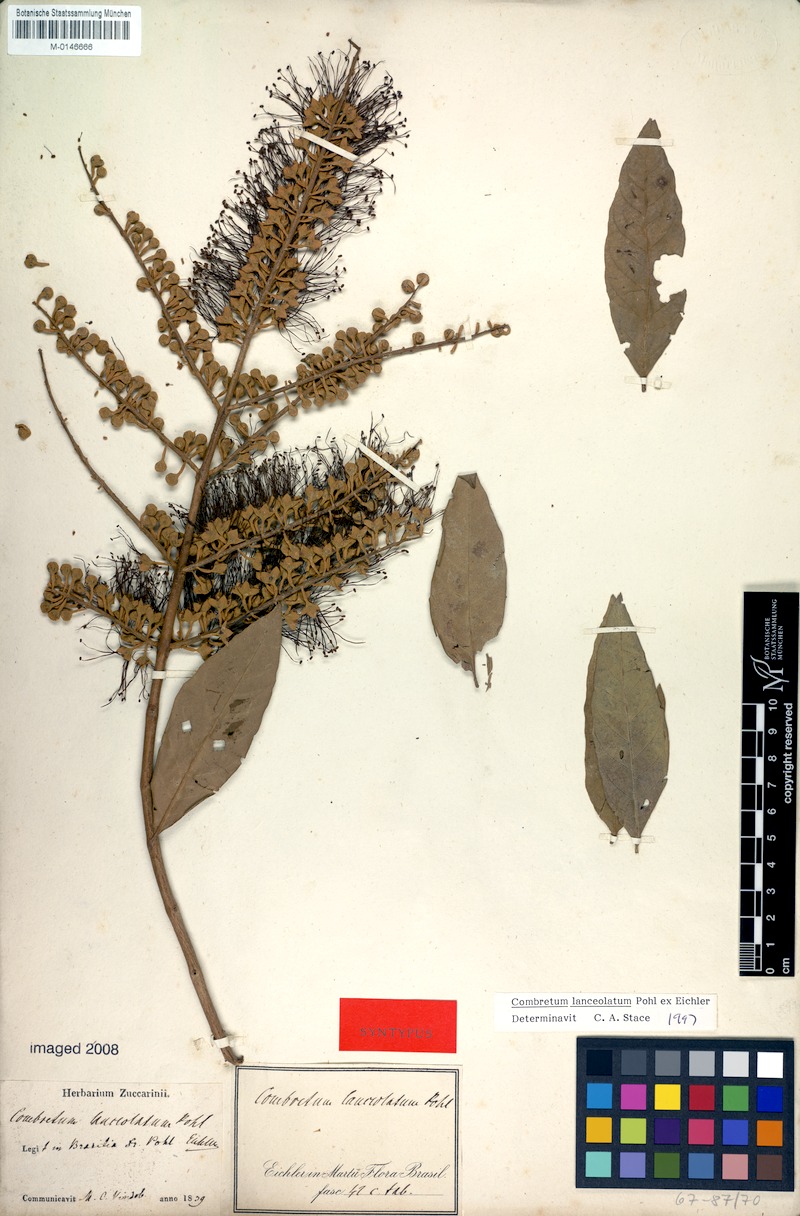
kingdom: Plantae
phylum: Tracheophyta
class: Magnoliopsida
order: Myrtales
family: Combretaceae
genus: Combretum
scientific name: Combretum lanceolatum
